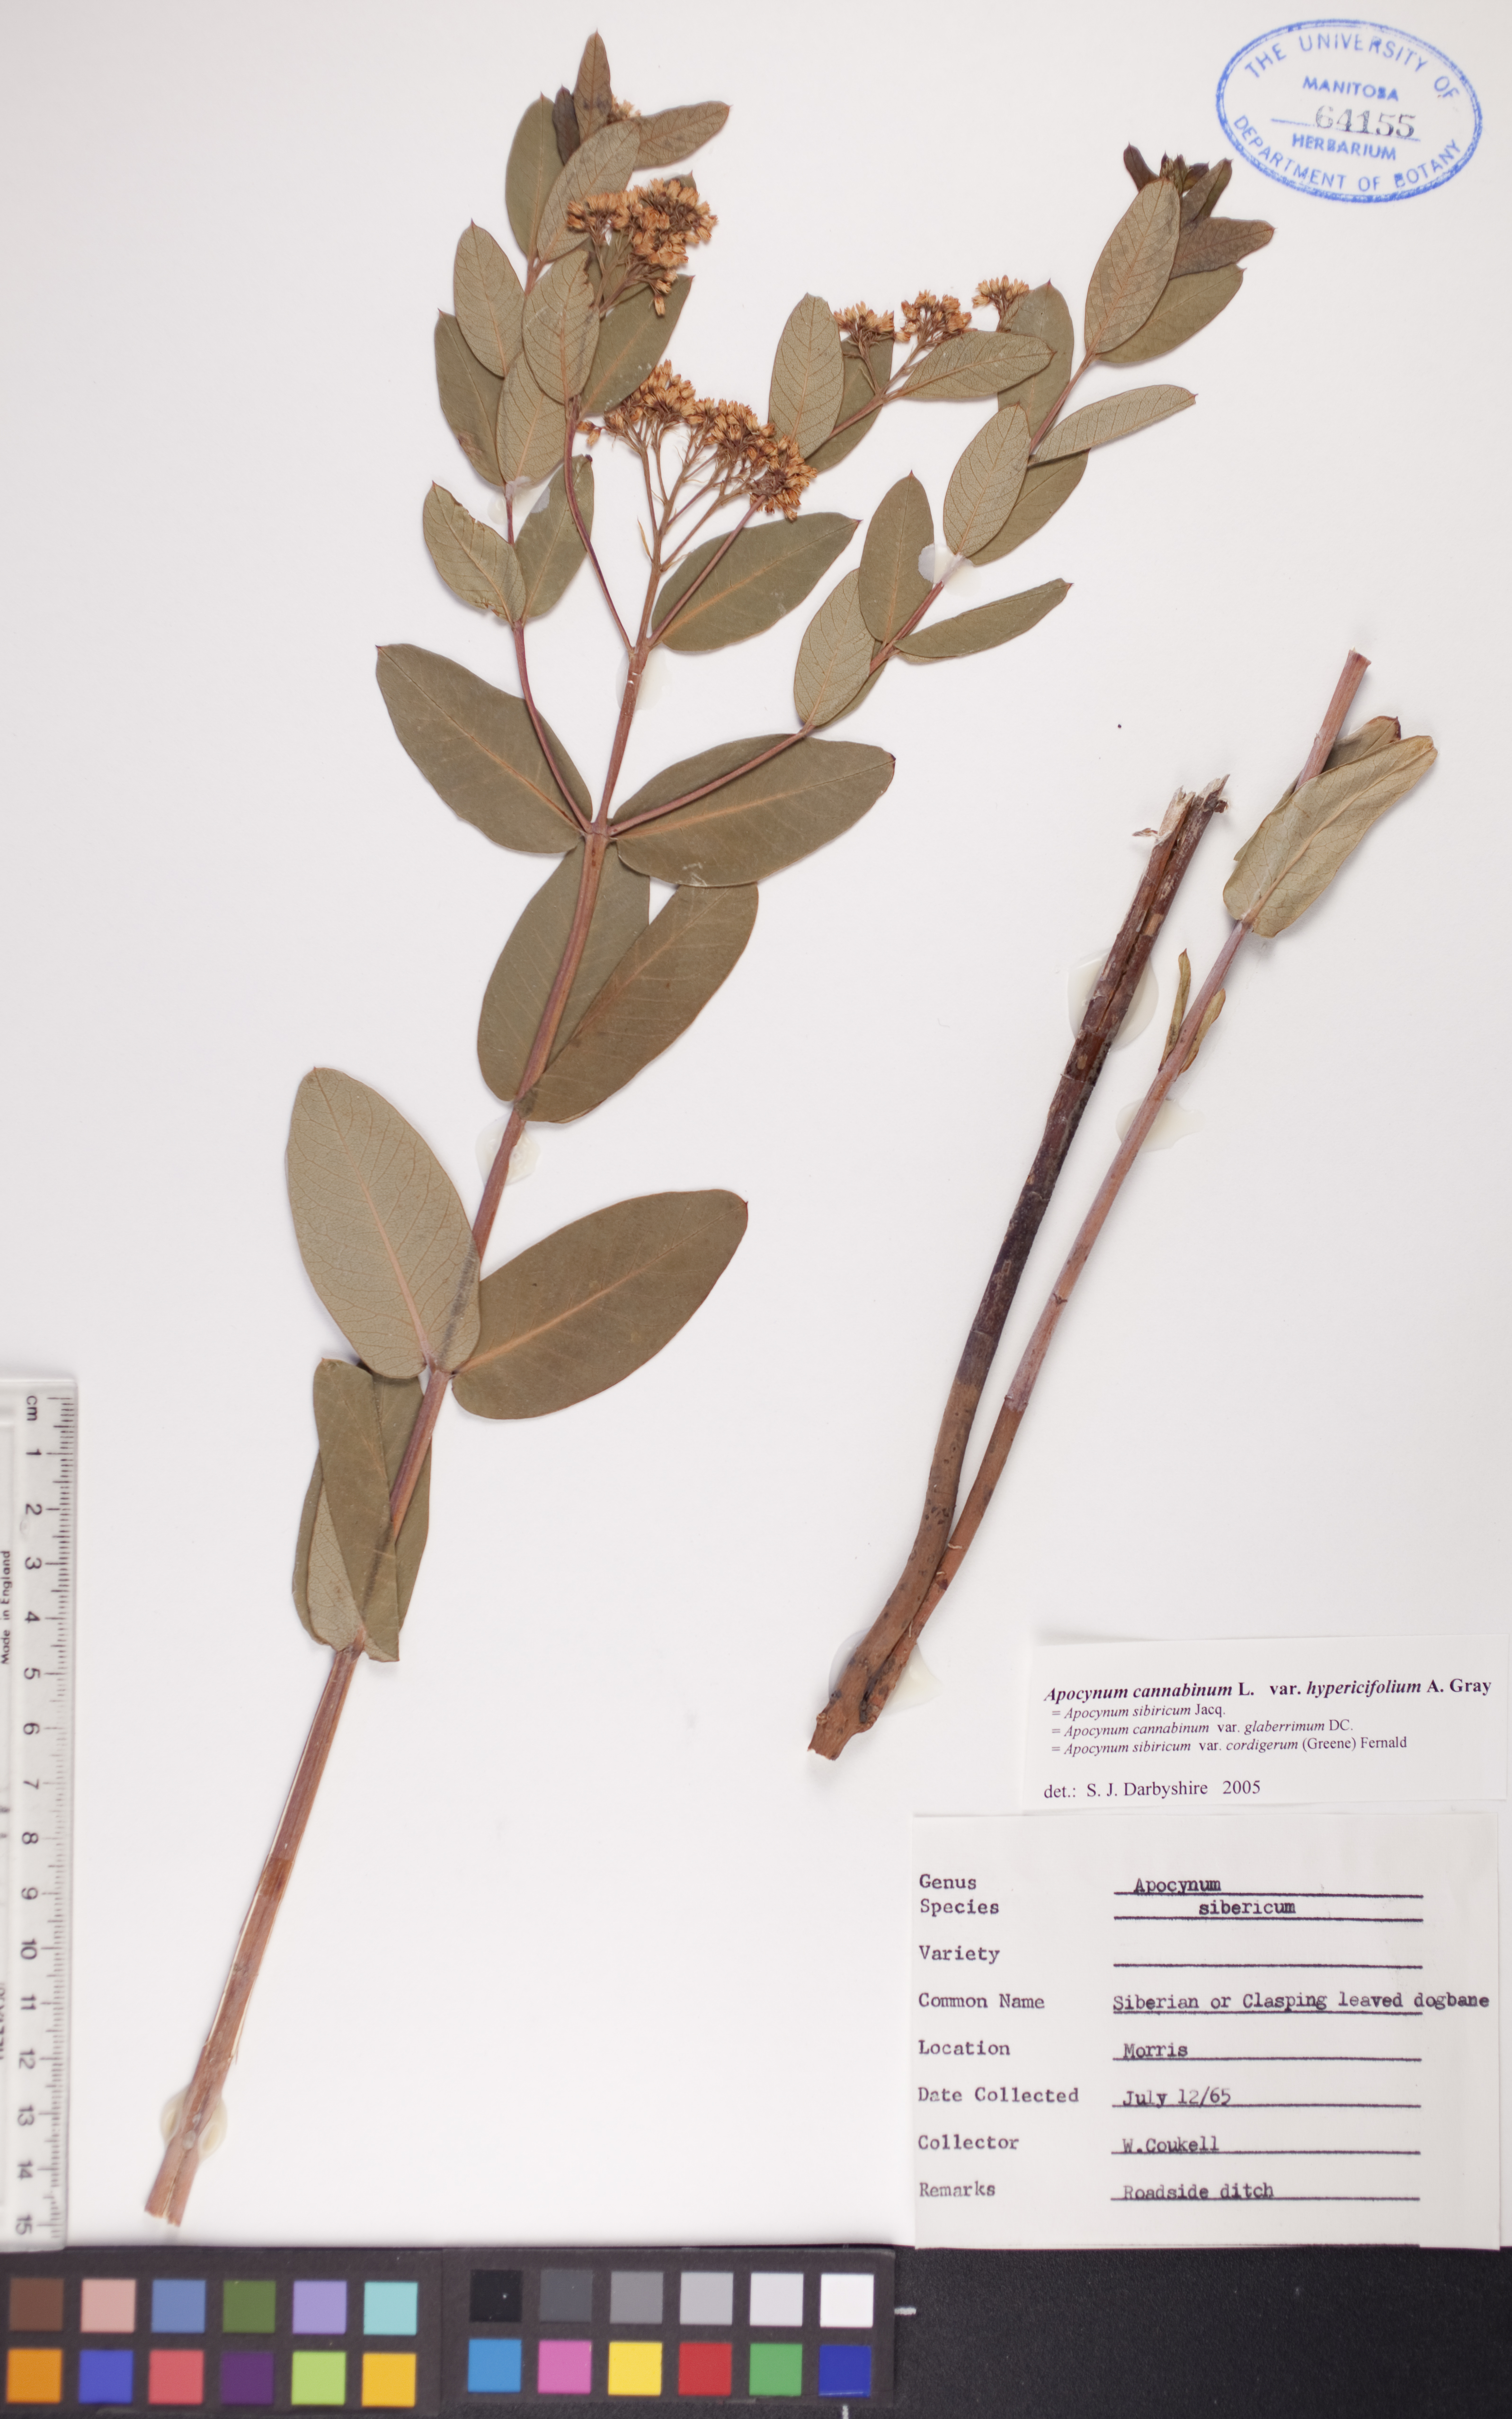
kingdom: Plantae
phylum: Tracheophyta
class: Magnoliopsida
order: Gentianales
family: Apocynaceae
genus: Apocynum
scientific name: Apocynum cannabinum
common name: Hemp dogbane
